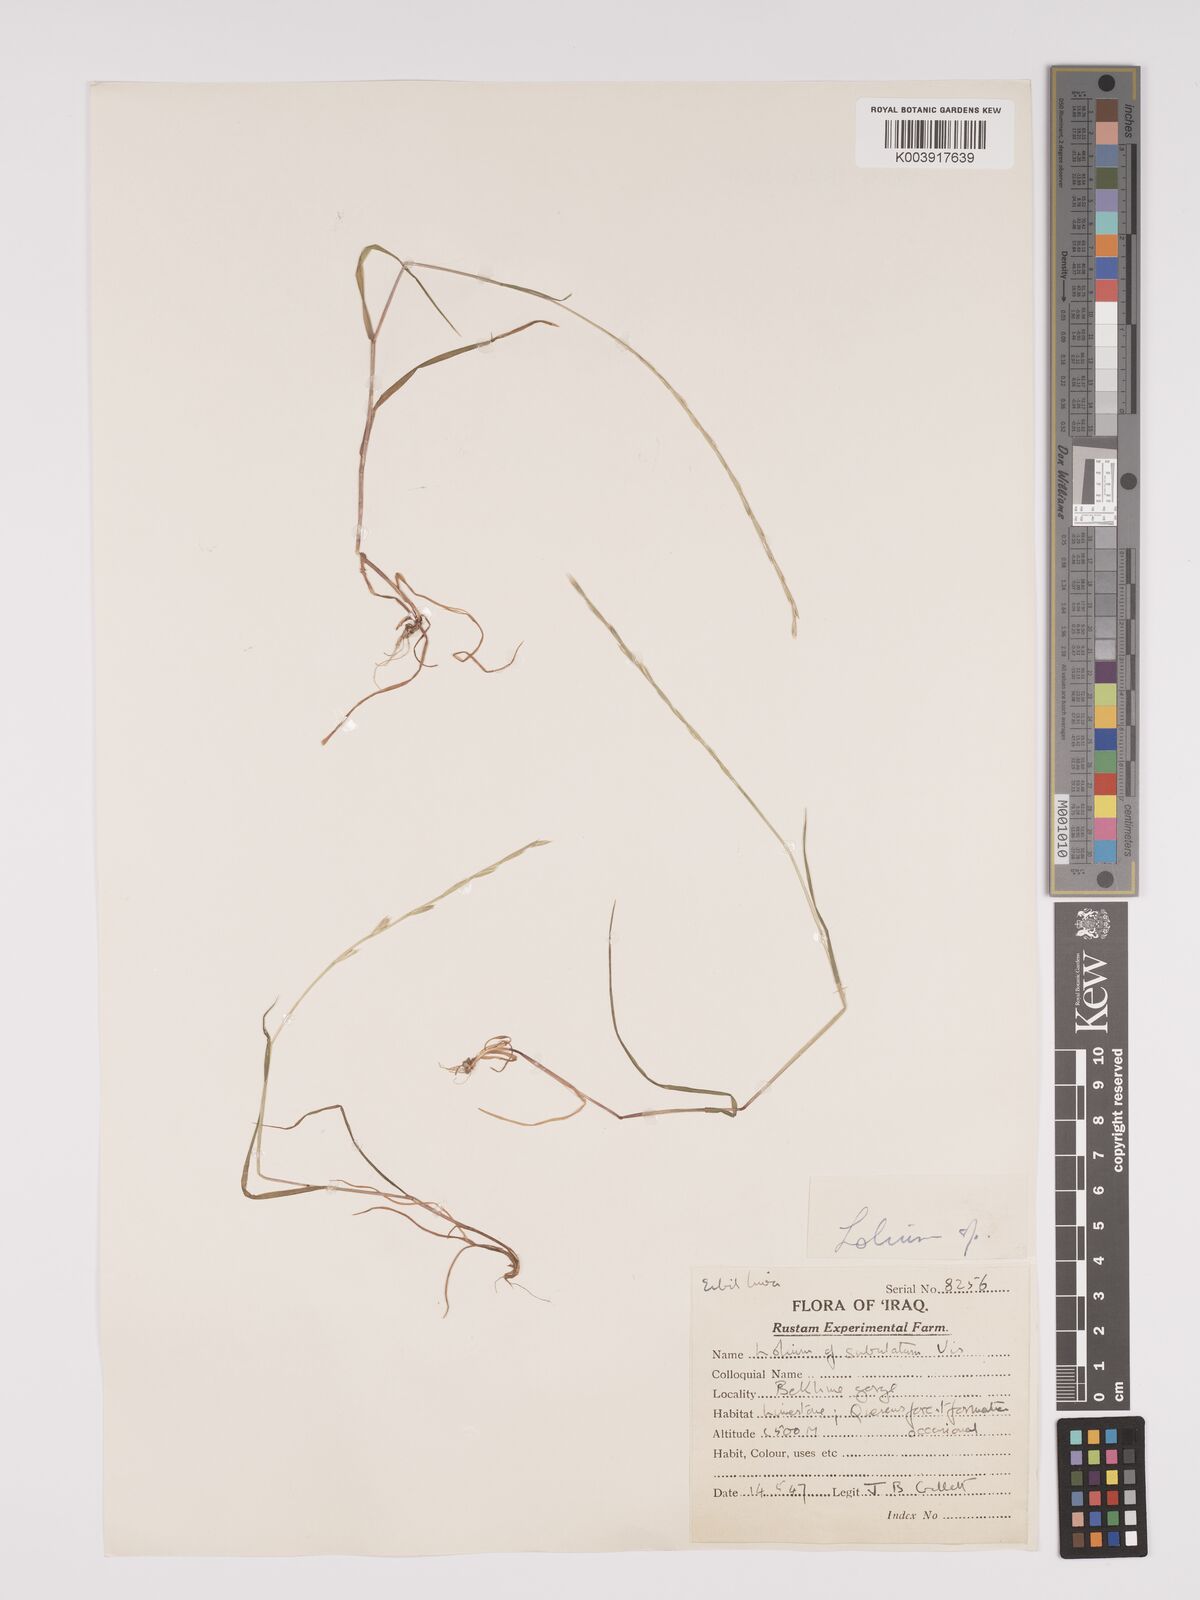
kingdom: Plantae
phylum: Tracheophyta
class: Liliopsida
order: Poales
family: Poaceae
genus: Lolium
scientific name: Lolium
